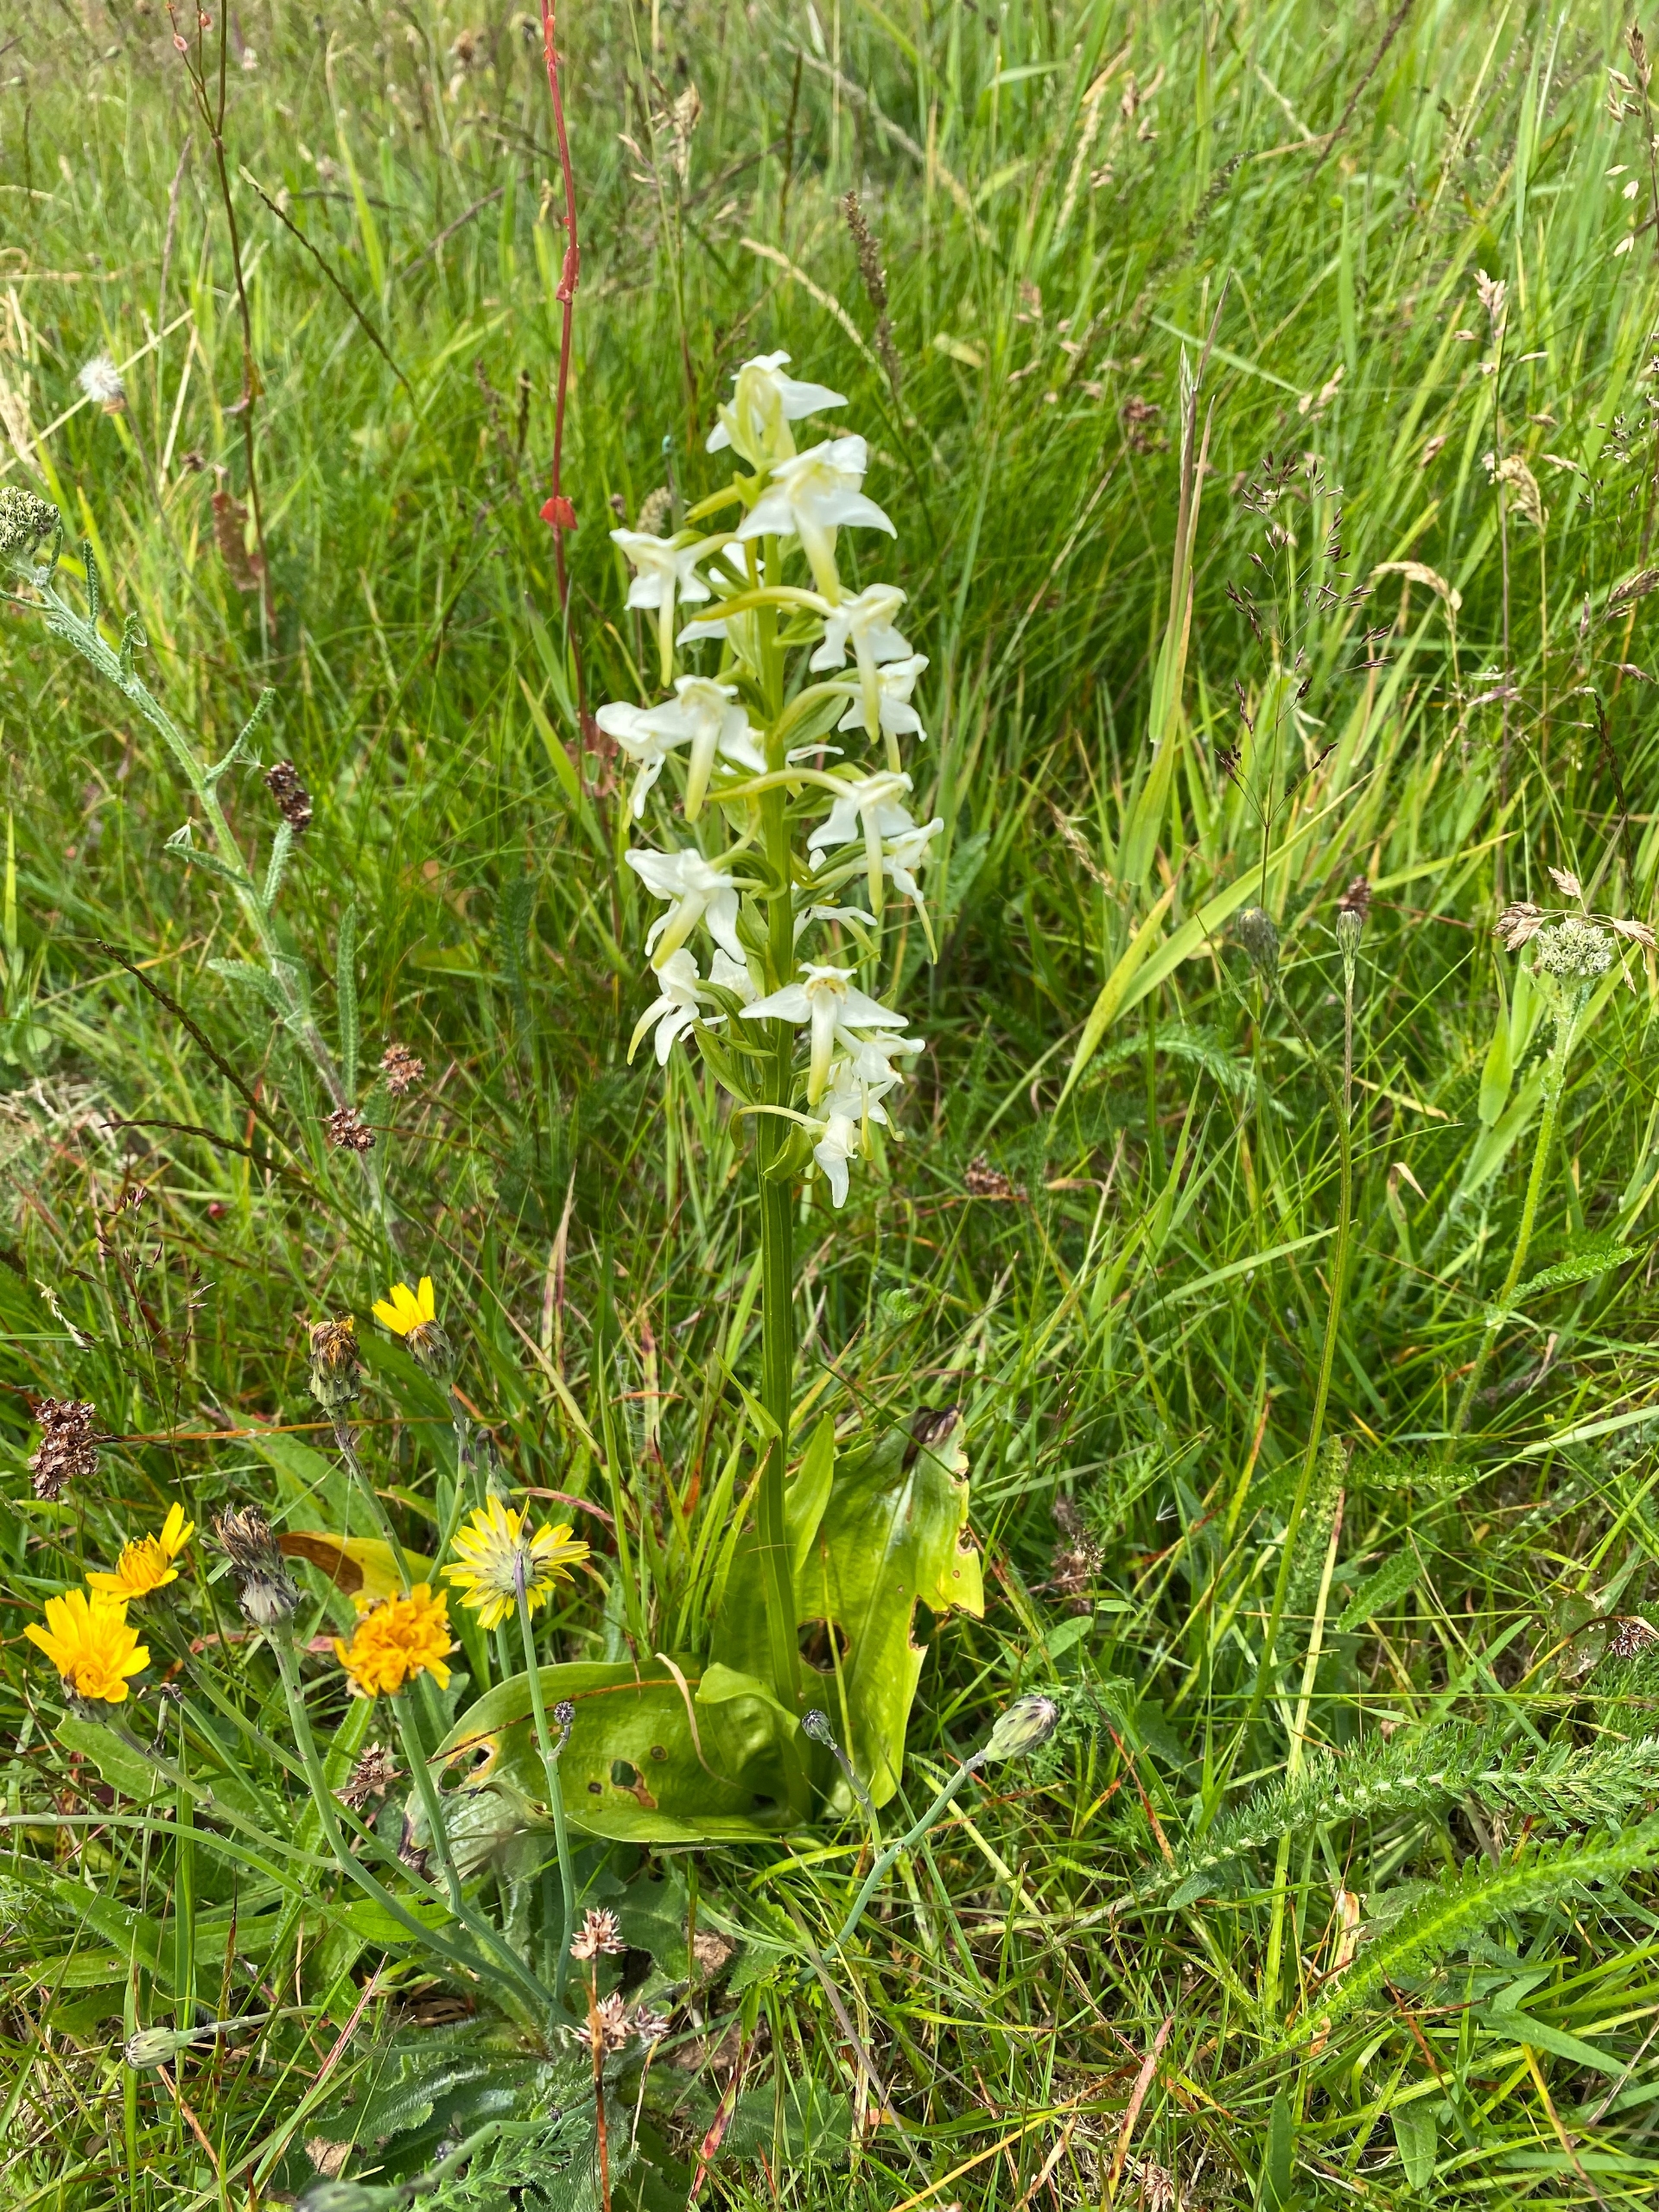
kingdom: Plantae
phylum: Tracheophyta
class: Liliopsida
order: Asparagales
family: Orchidaceae
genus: Platanthera
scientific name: Platanthera chlorantha
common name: Skov-gøgelilje
